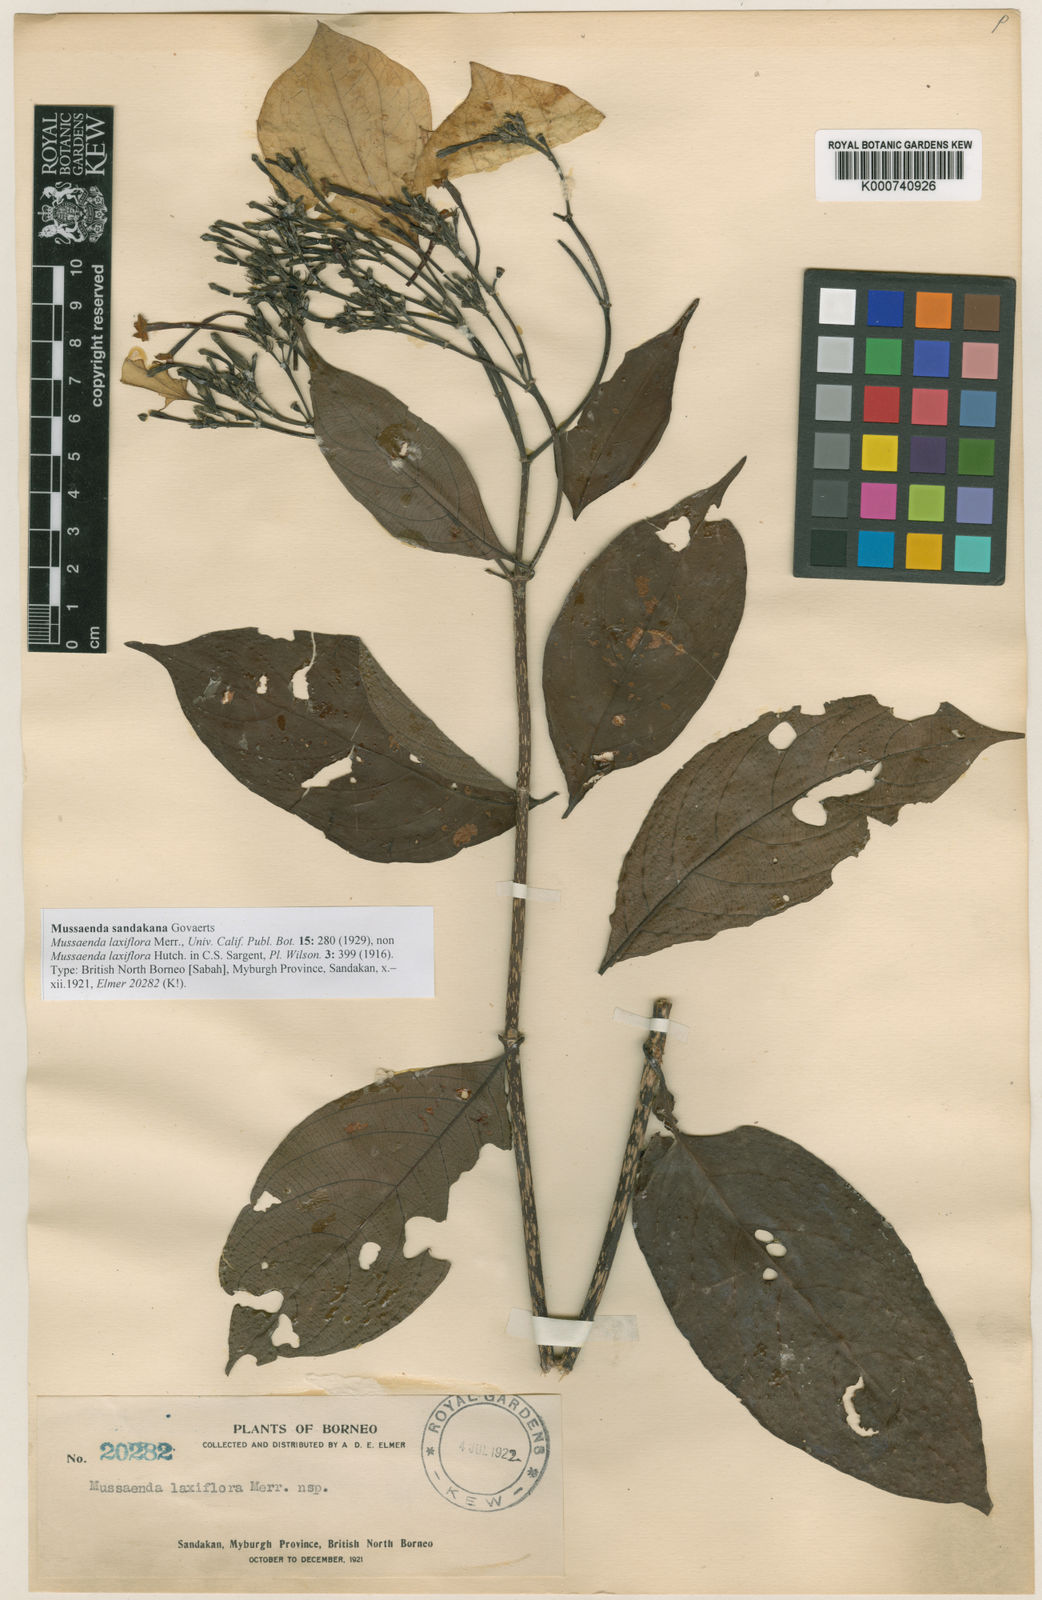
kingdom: Plantae
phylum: Tracheophyta
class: Magnoliopsida
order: Gentianales
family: Rubiaceae
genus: Mussaenda
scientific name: Mussaenda sandakana
